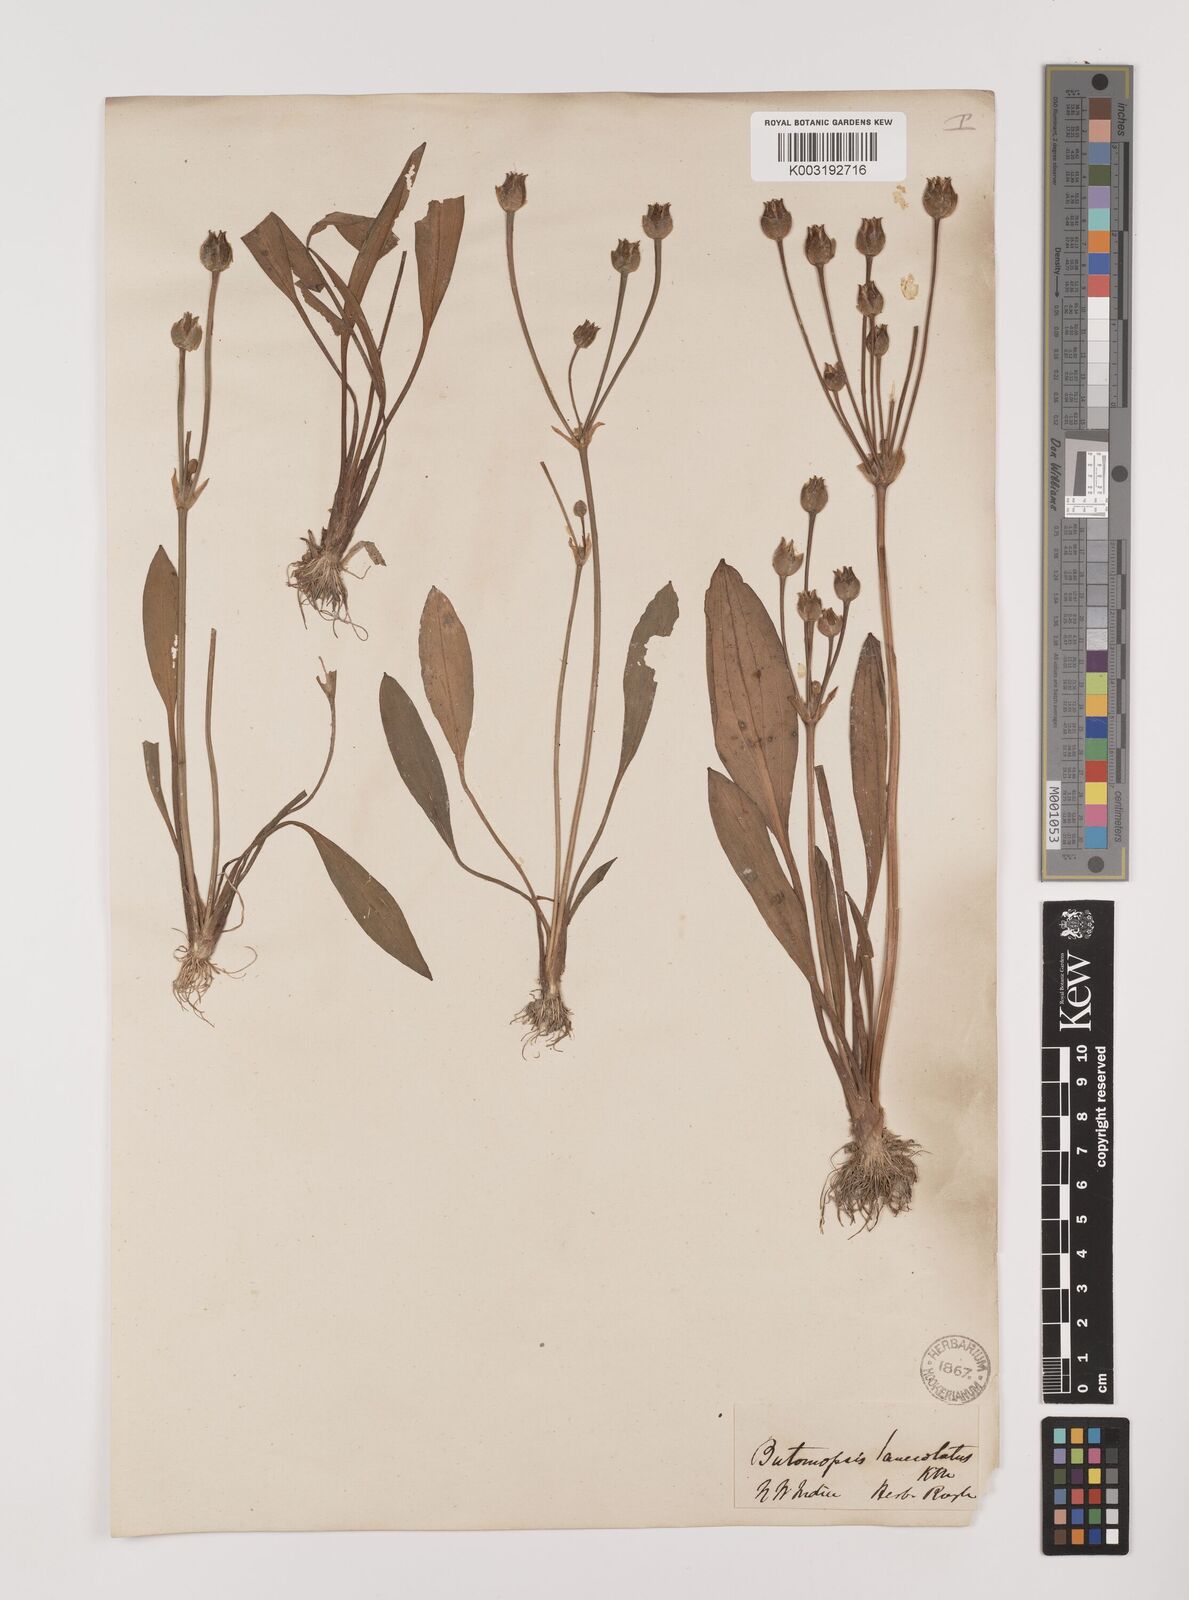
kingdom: Plantae
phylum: Tracheophyta
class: Liliopsida
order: Alismatales
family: Alismataceae
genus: Butomopsis
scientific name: Butomopsis latifolia
